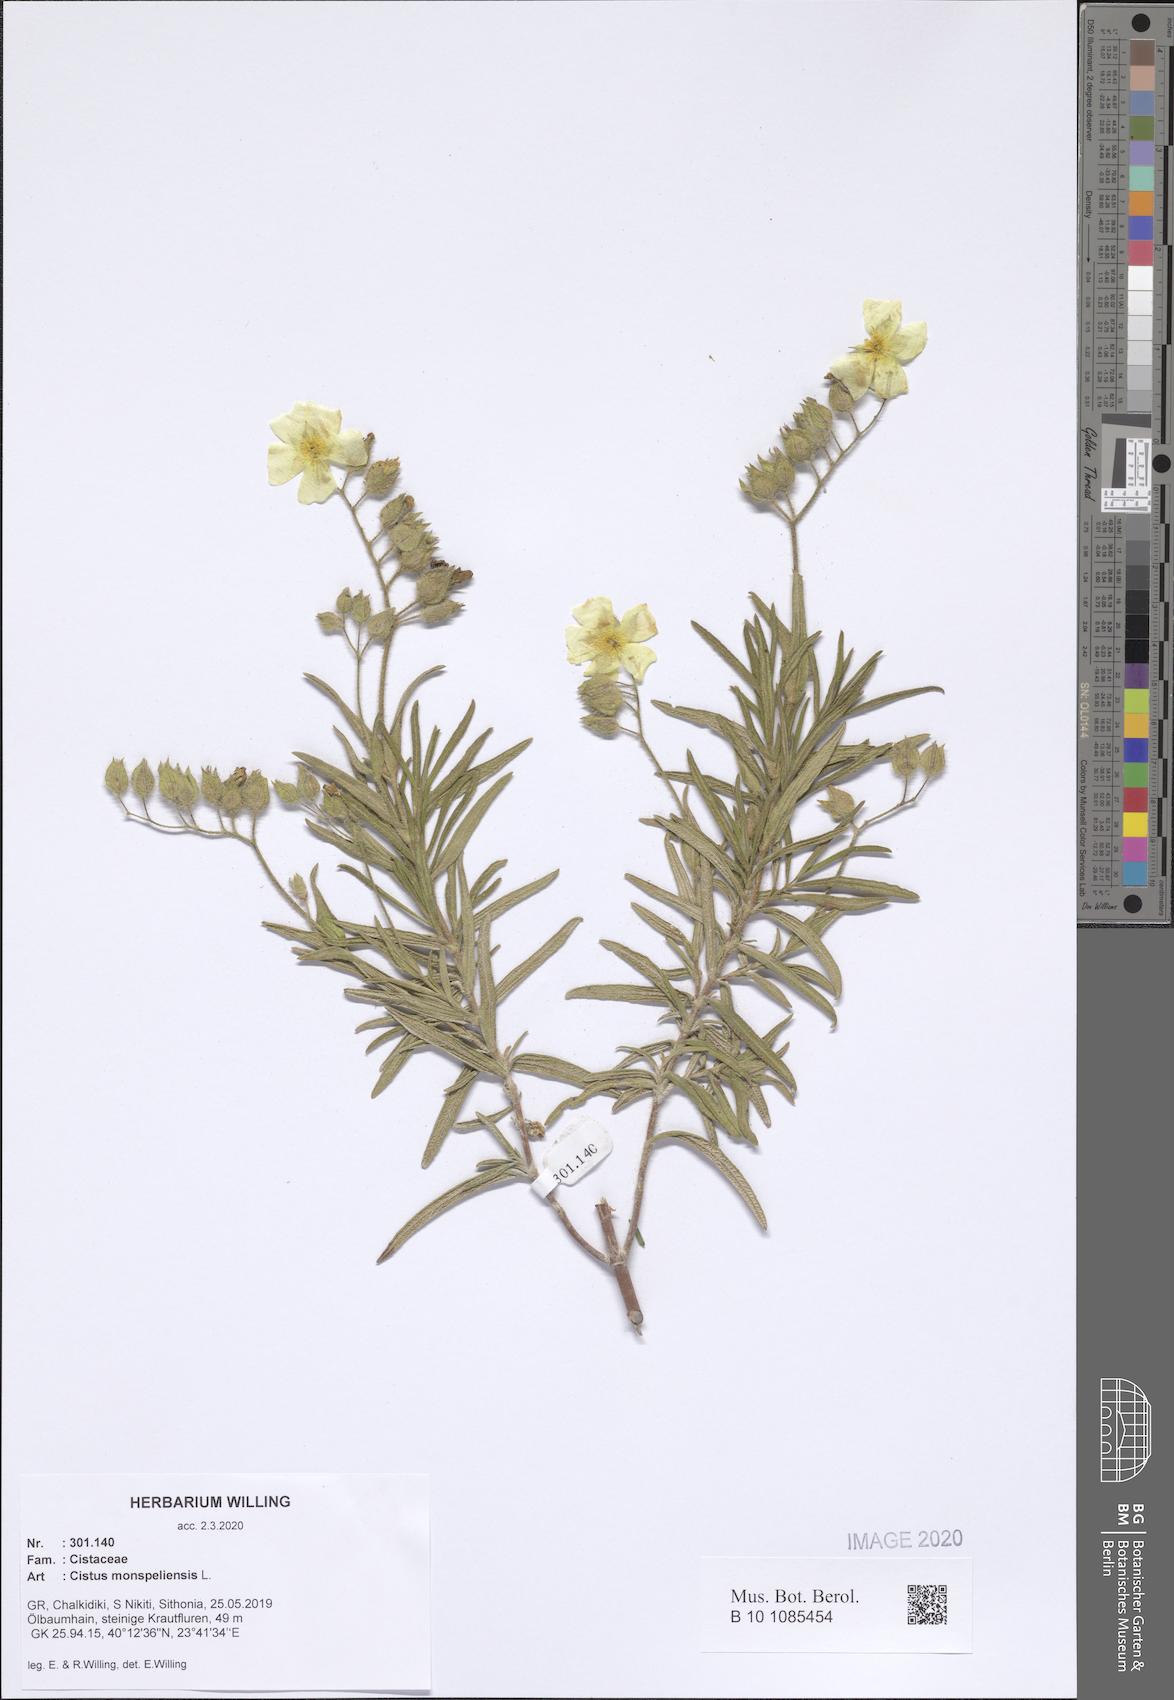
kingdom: Plantae
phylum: Tracheophyta
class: Magnoliopsida
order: Malvales
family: Cistaceae
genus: Cistus
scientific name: Cistus monspeliensis
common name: Montpelier cistus
